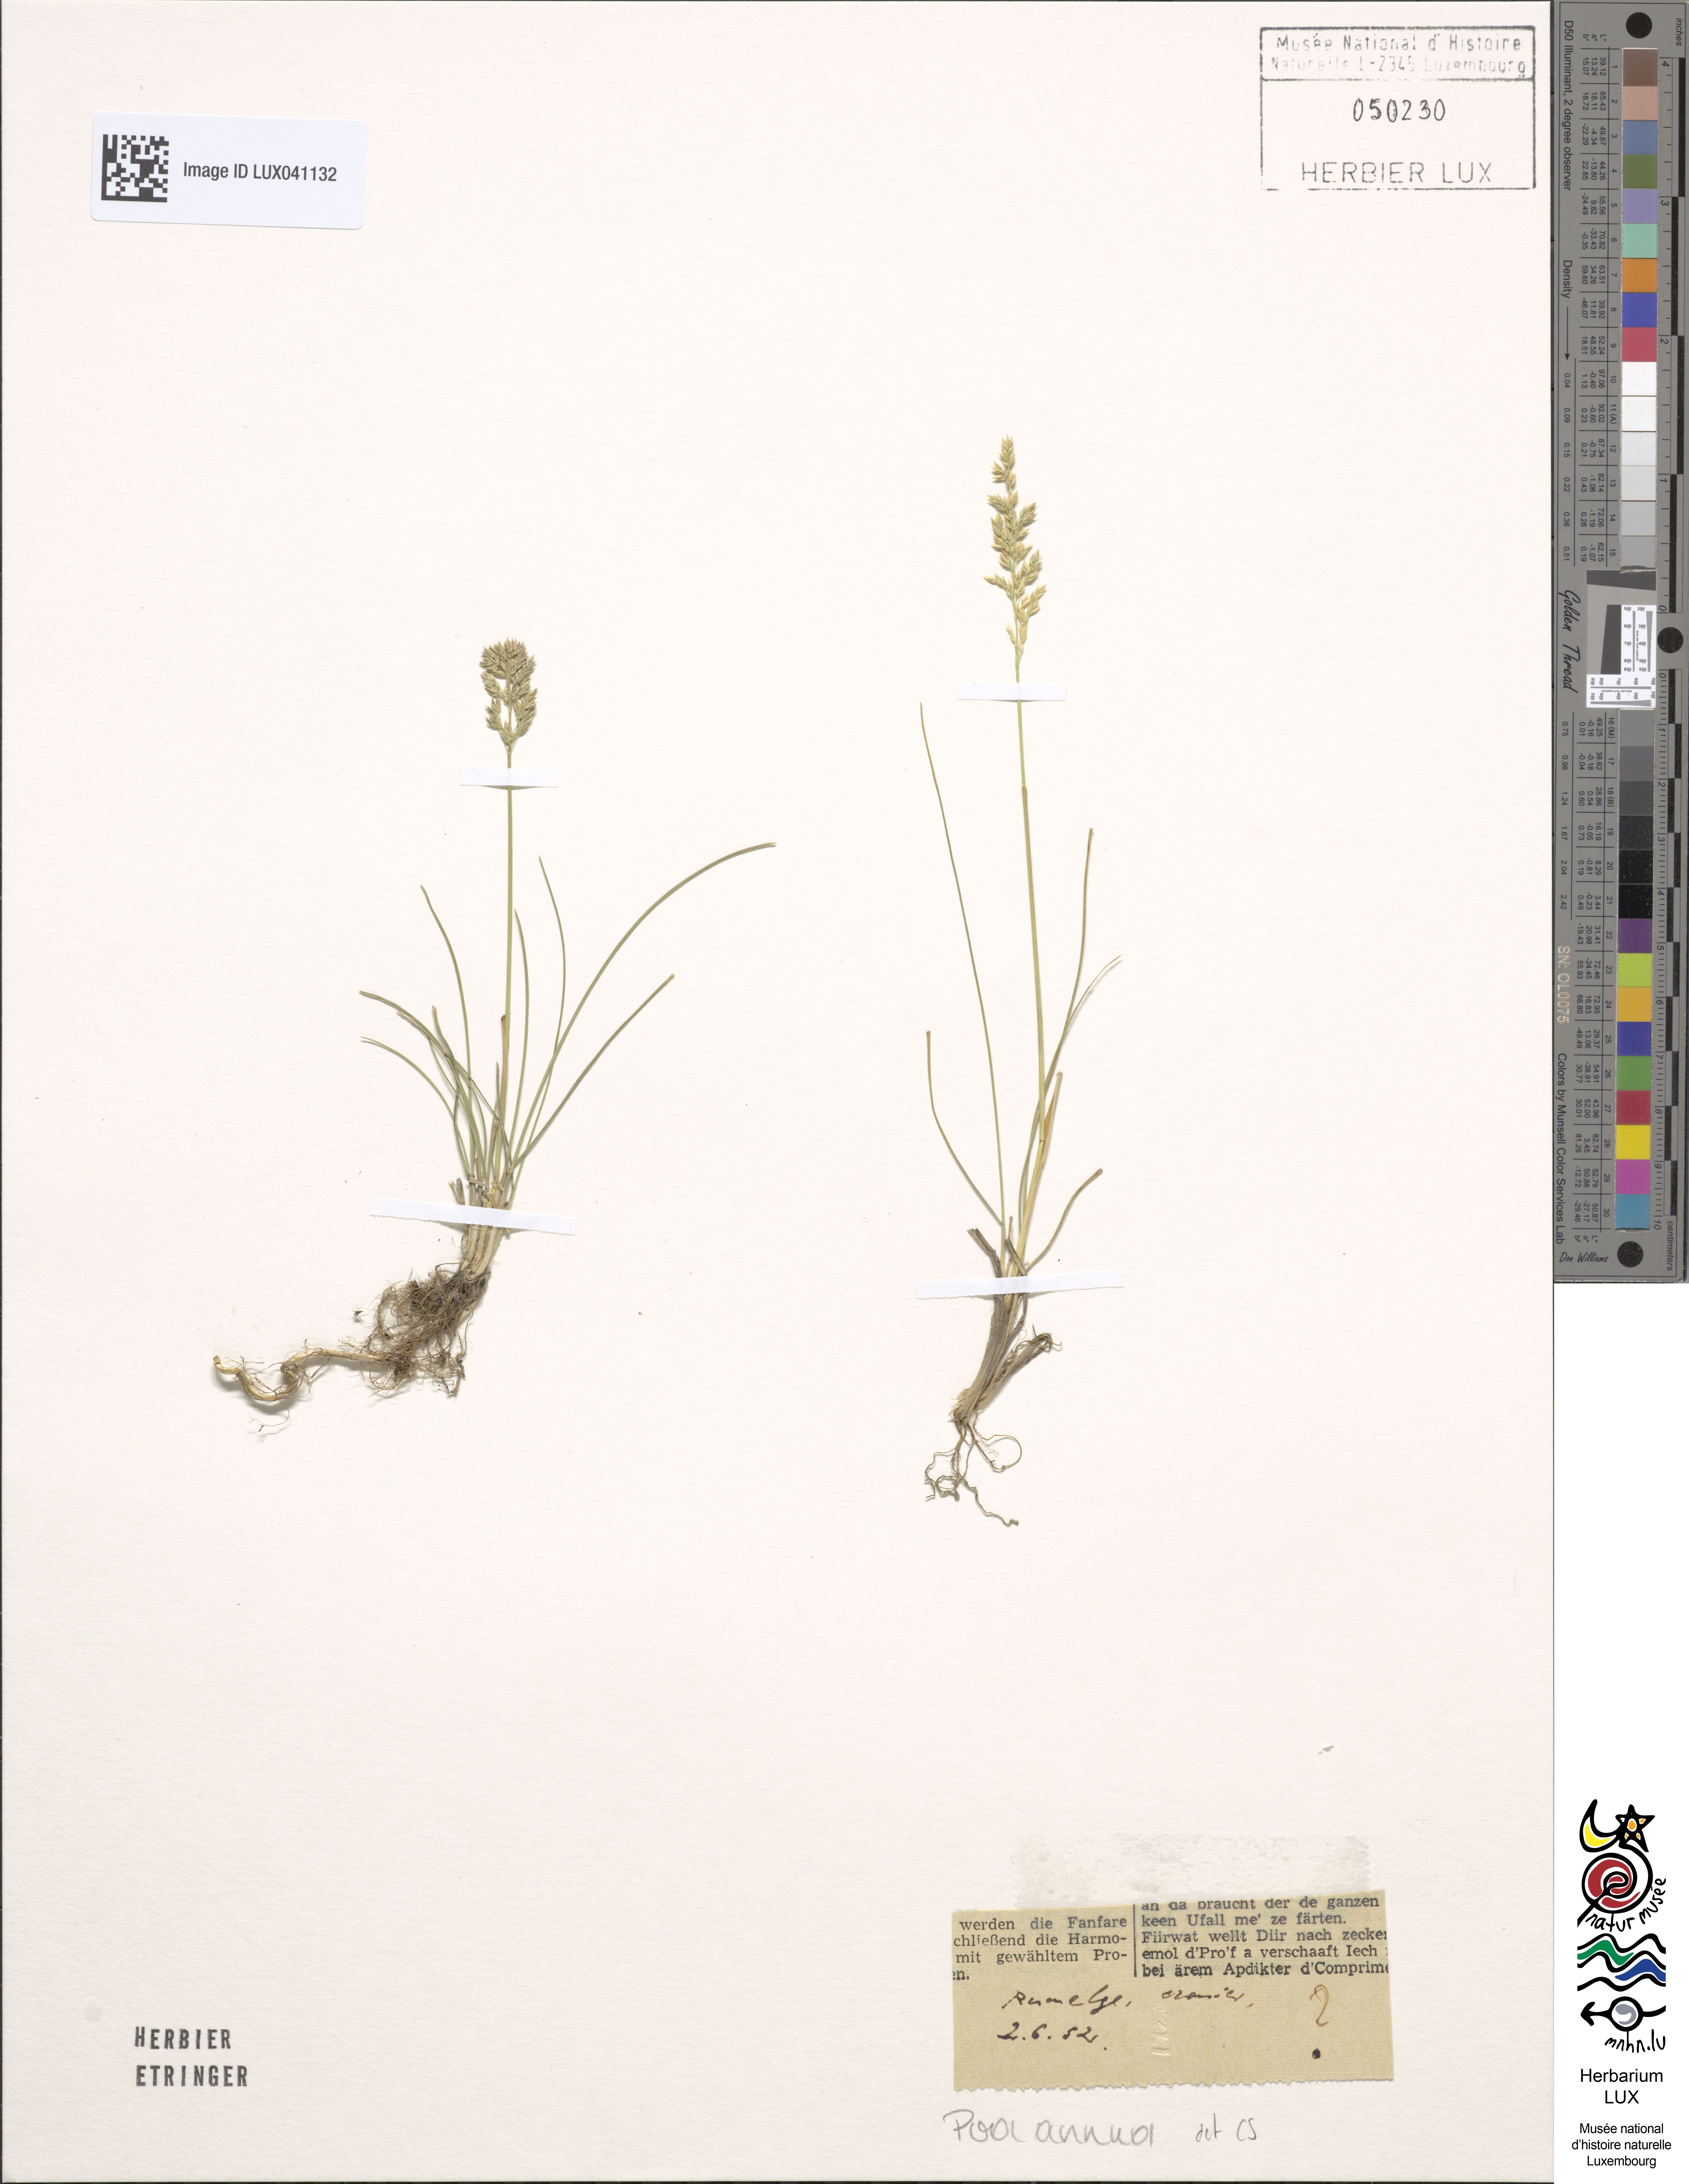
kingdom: Plantae
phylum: Tracheophyta
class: Liliopsida
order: Poales
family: Poaceae
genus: Poa
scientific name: Poa annua
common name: Annual bluegrass
